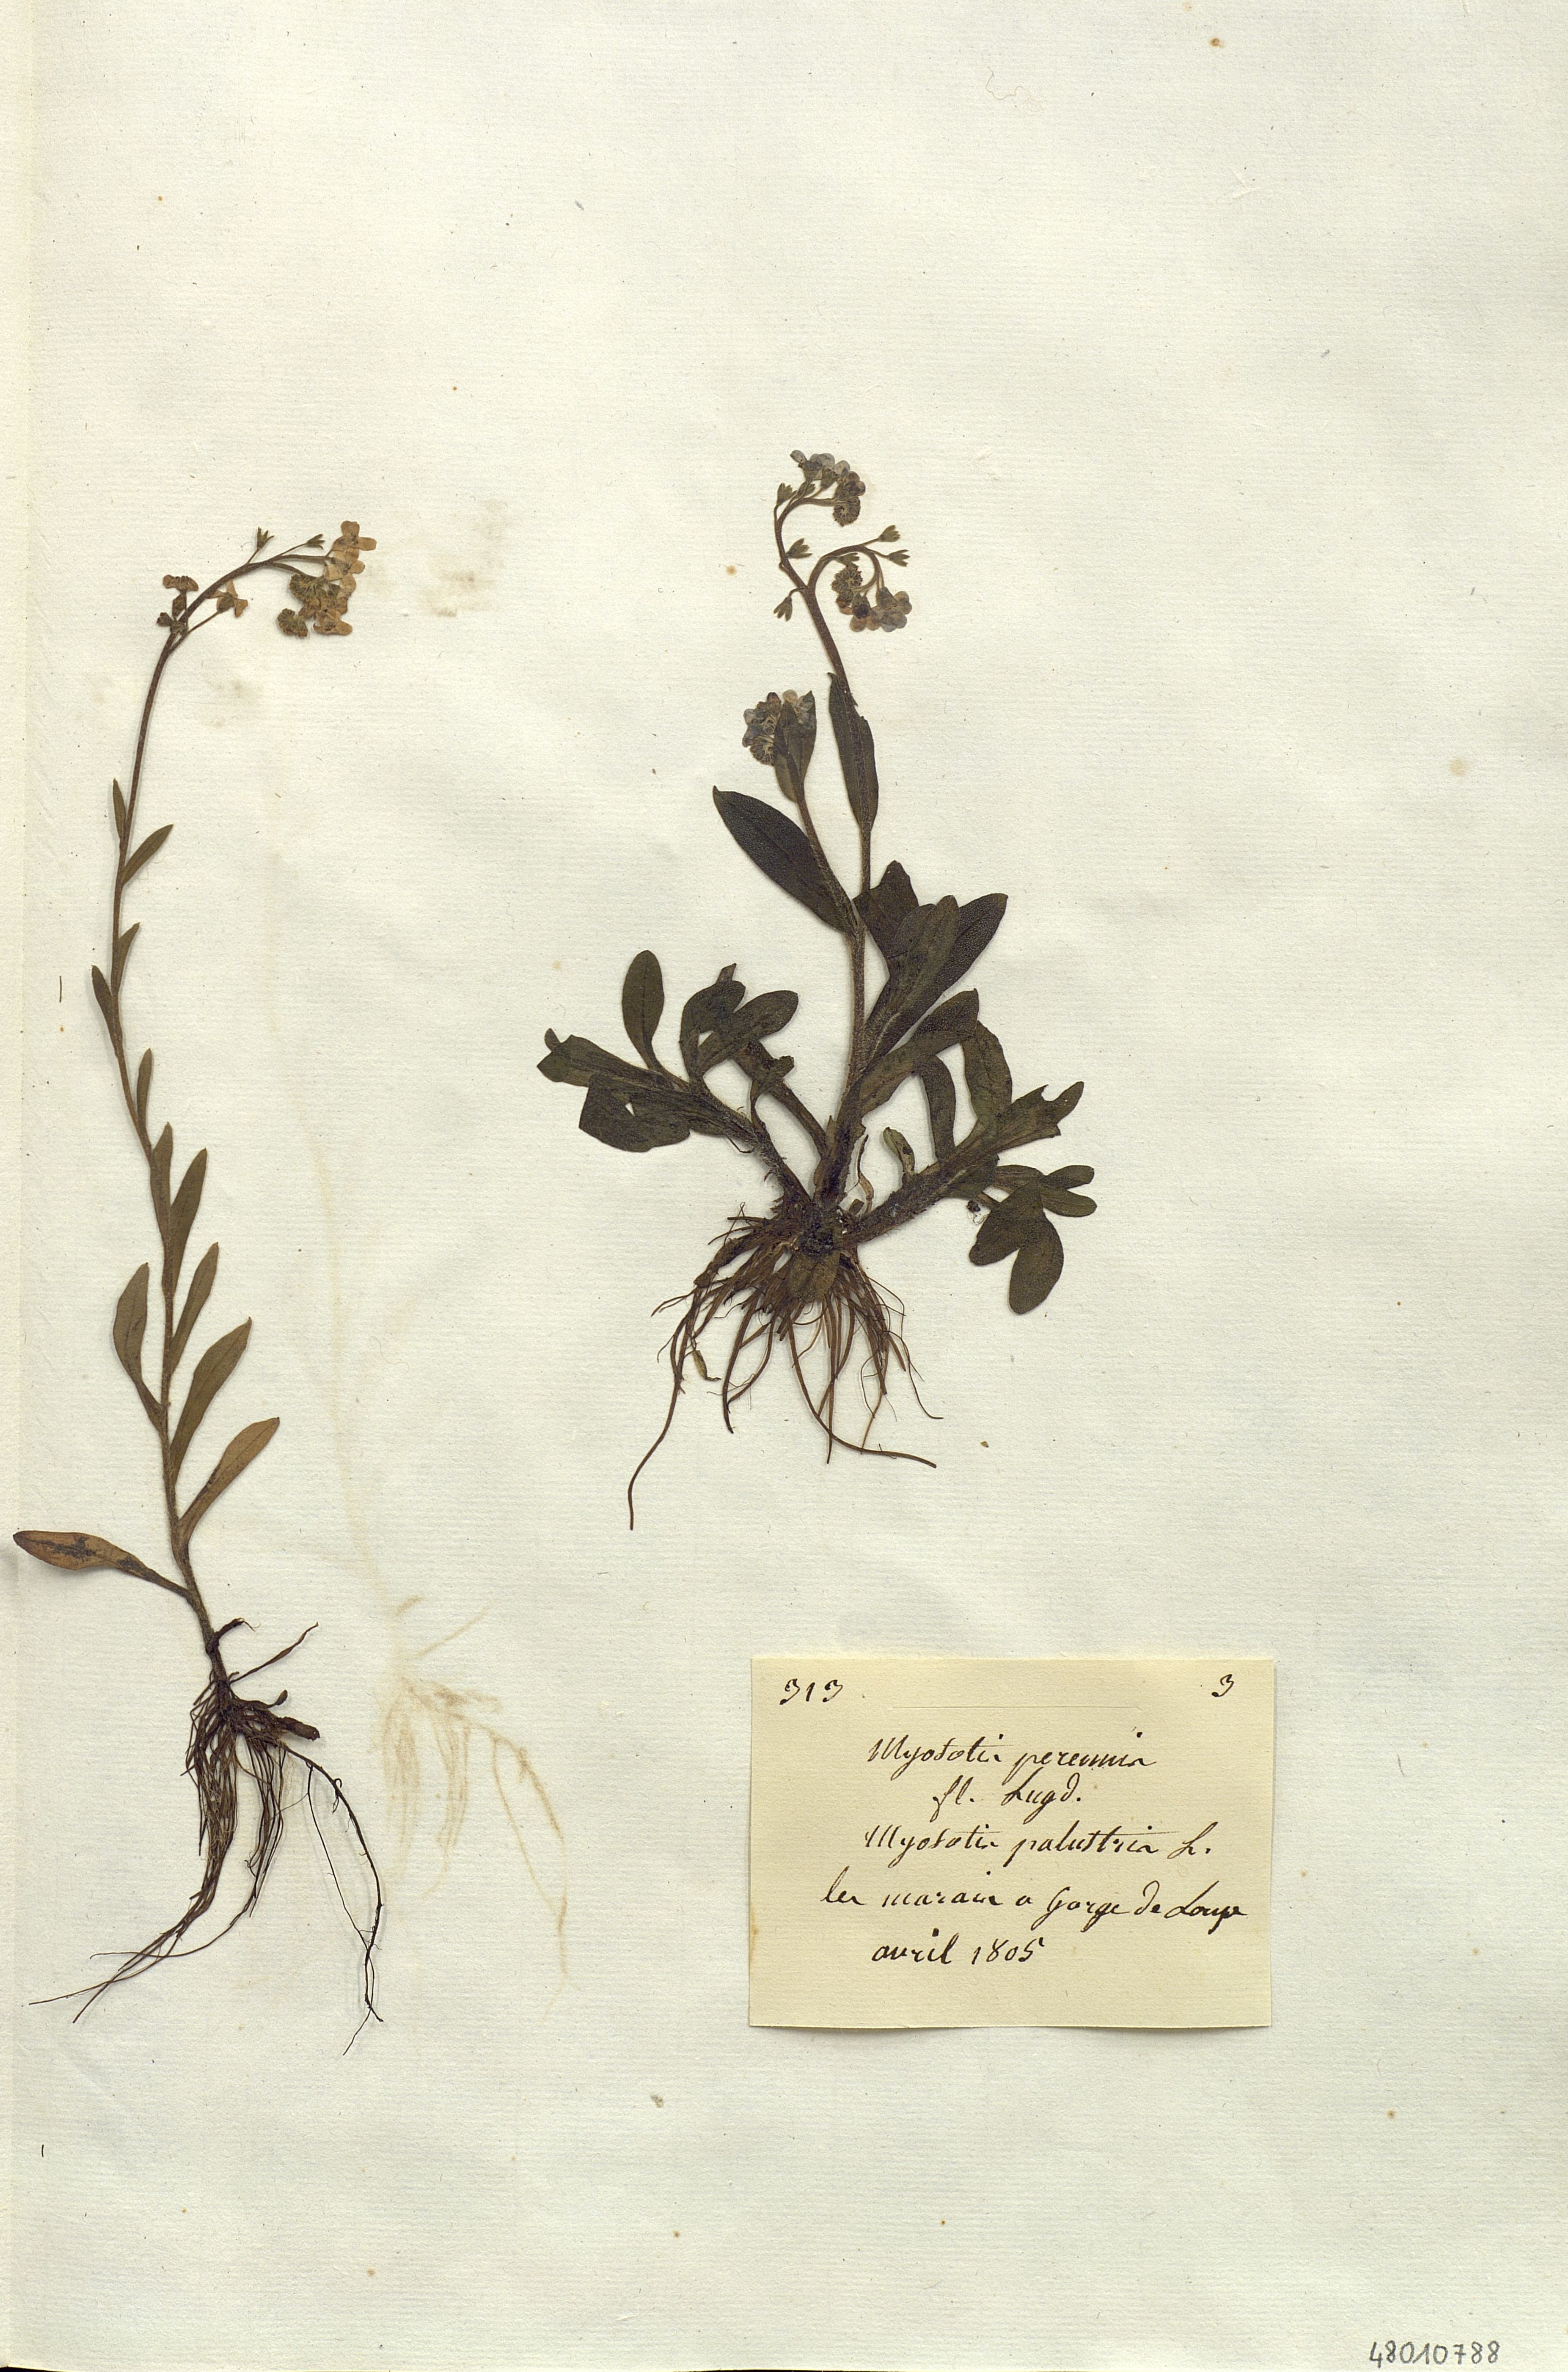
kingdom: Plantae
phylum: Tracheophyta
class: Magnoliopsida
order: Boraginales
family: Boraginaceae
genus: Myosotis
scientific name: Myosotis scorpioides
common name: Water forget-me-not
